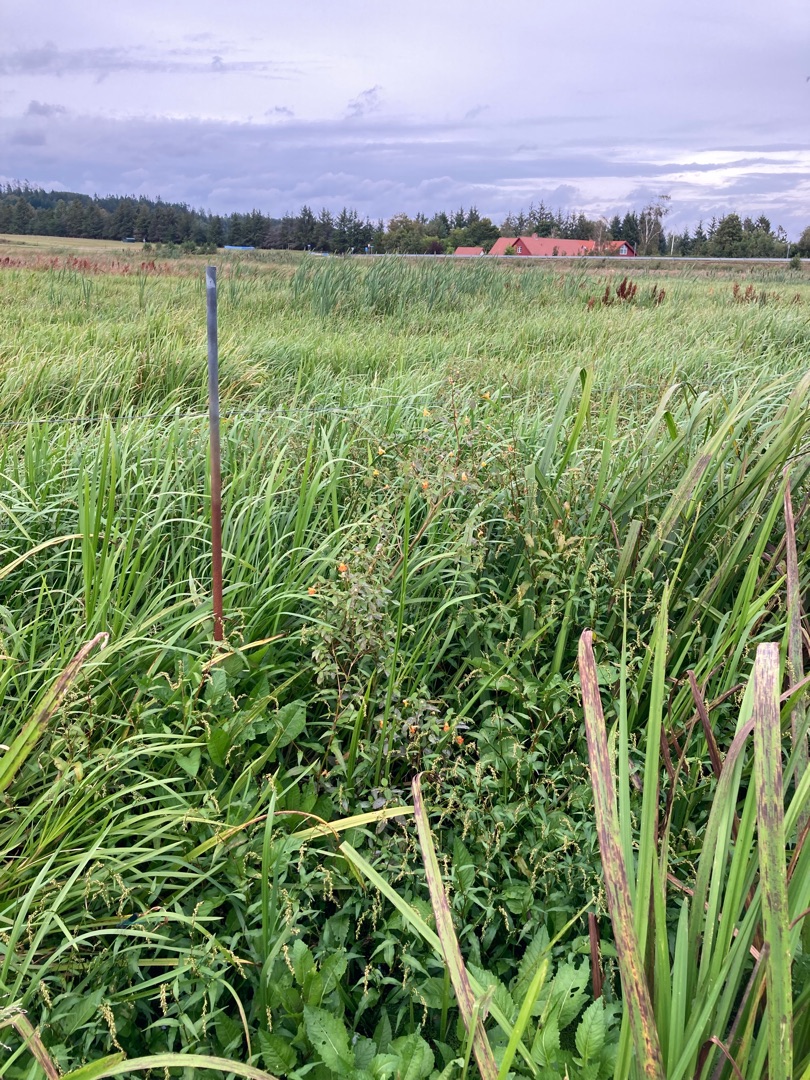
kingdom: Plantae
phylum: Tracheophyta
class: Magnoliopsida
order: Ericales
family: Balsaminaceae
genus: Impatiens
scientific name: Impatiens capensis
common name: Orange-balsamin
